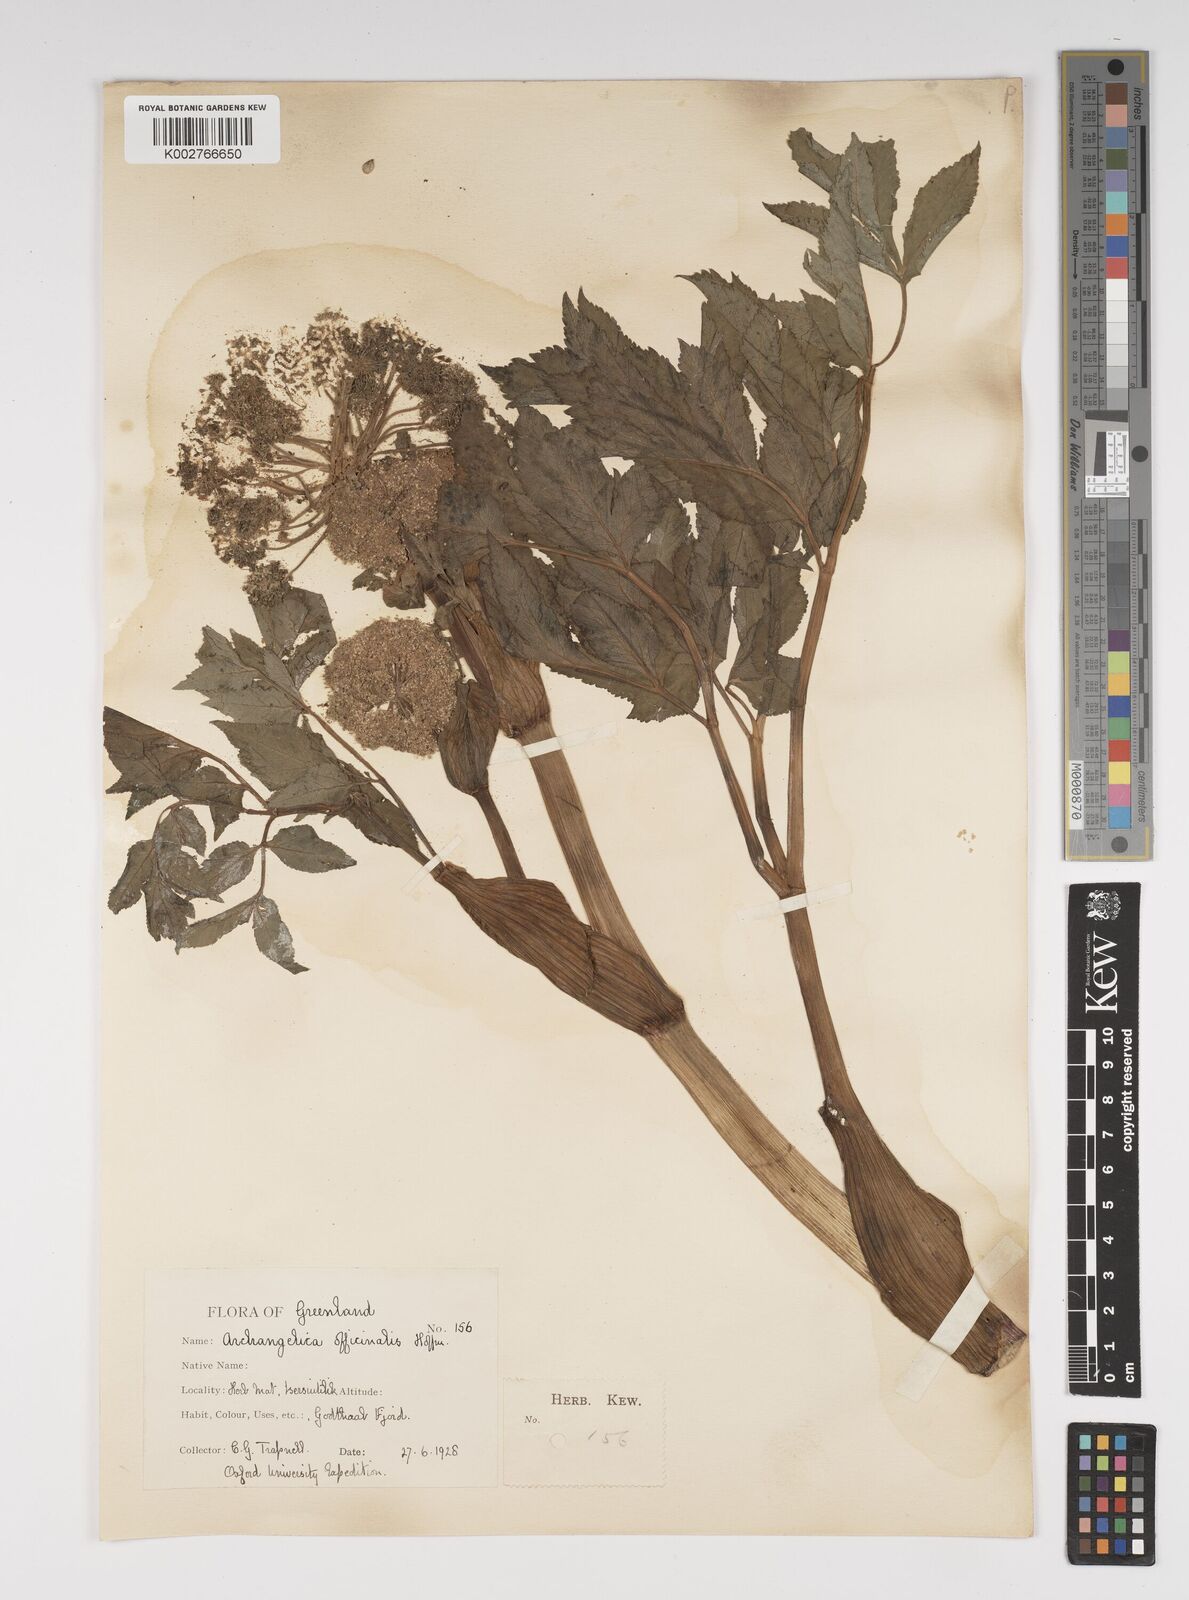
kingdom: Plantae
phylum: Tracheophyta
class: Magnoliopsida
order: Apiales
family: Apiaceae
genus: Angelica
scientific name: Angelica archangelica
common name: Garden angelica
